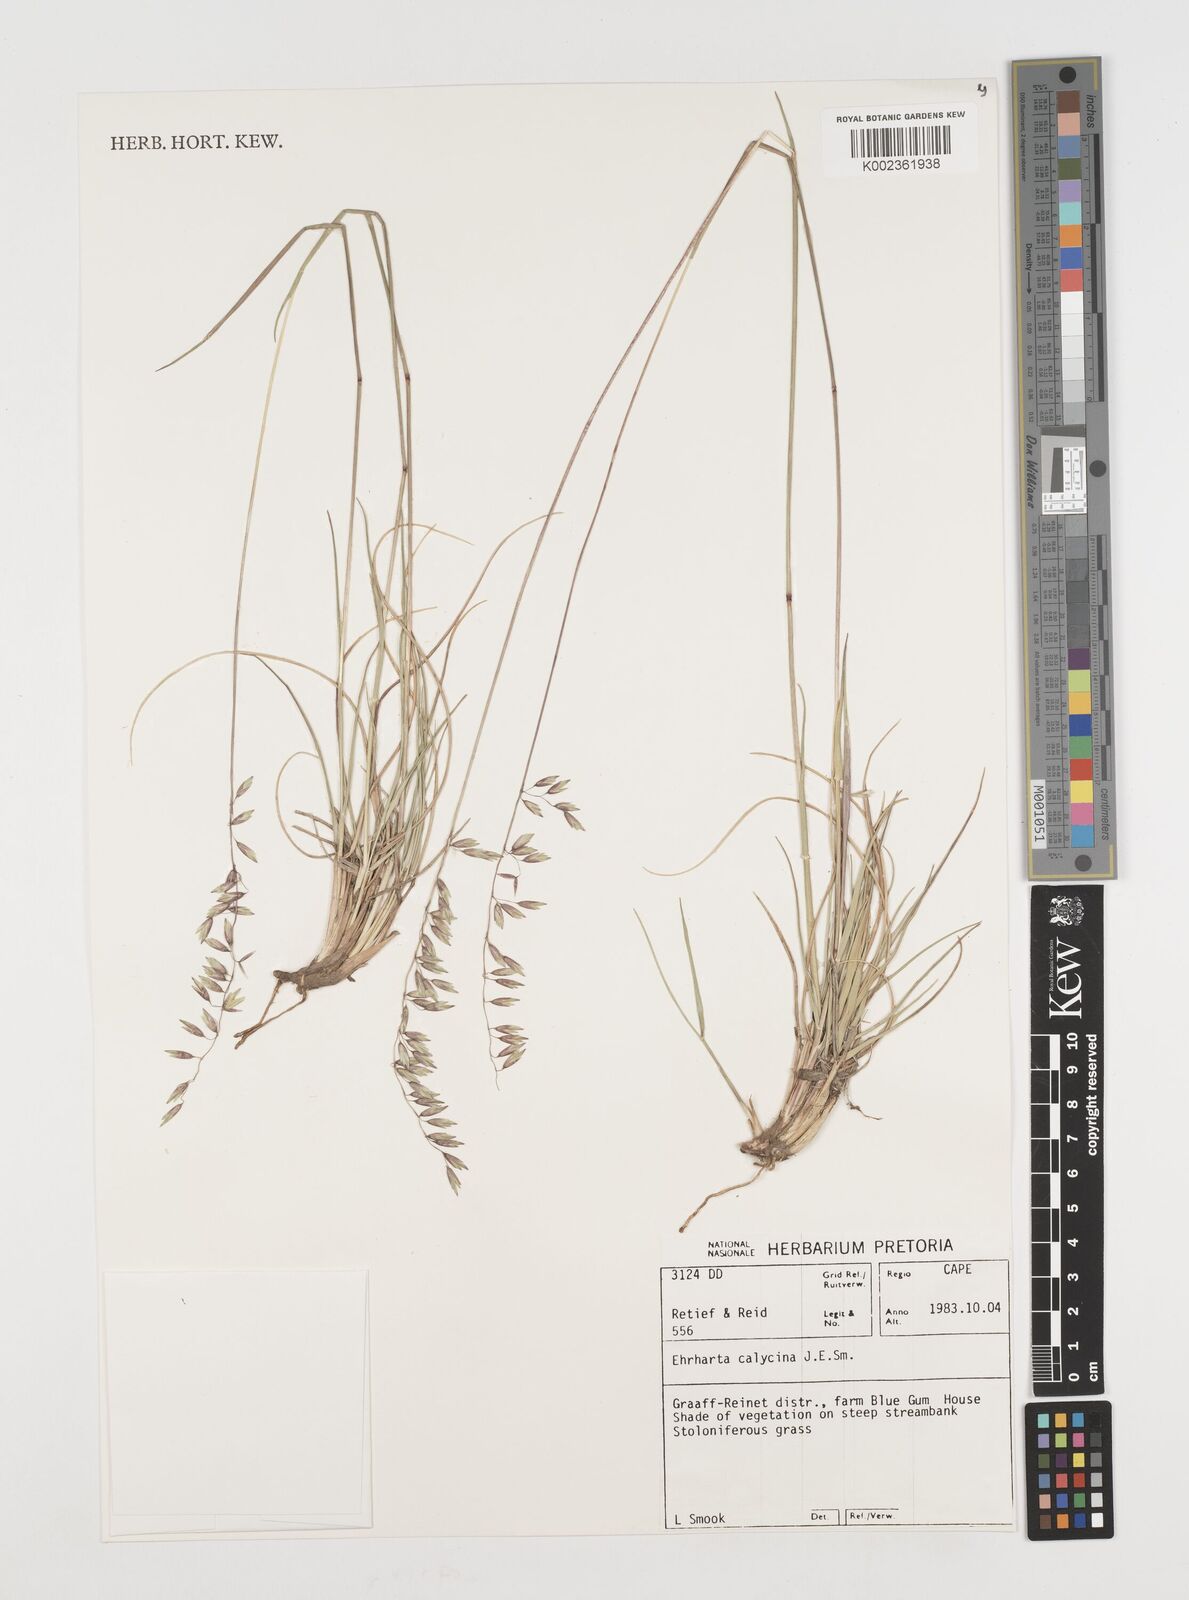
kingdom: Plantae
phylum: Tracheophyta
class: Liliopsida
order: Poales
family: Poaceae
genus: Ehrharta
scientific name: Ehrharta calycina
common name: Perennial veldtgrass
